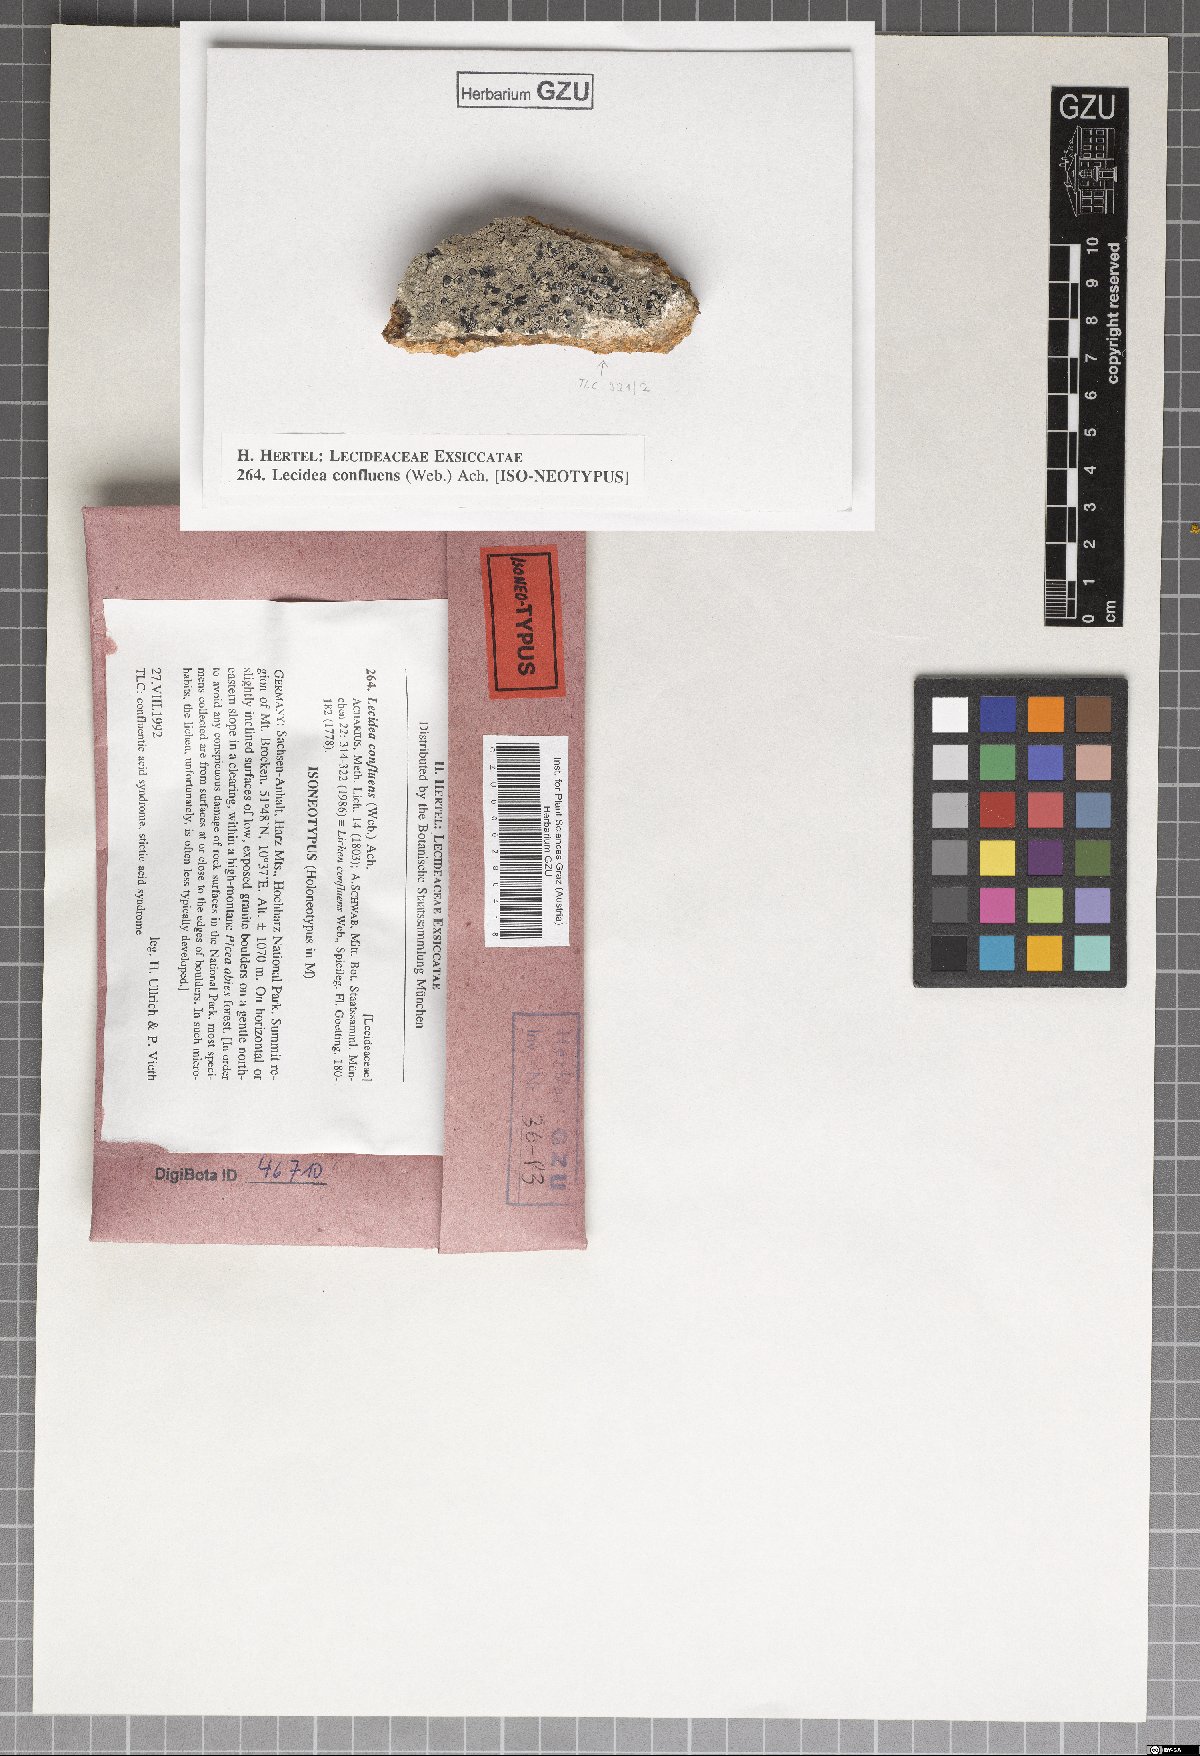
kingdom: Fungi
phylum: Ascomycota
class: Lecanoromycetes
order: Lecideales
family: Lecideaceae
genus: Lecidea
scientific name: Lecidea confluens
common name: Confluent disc lichen
